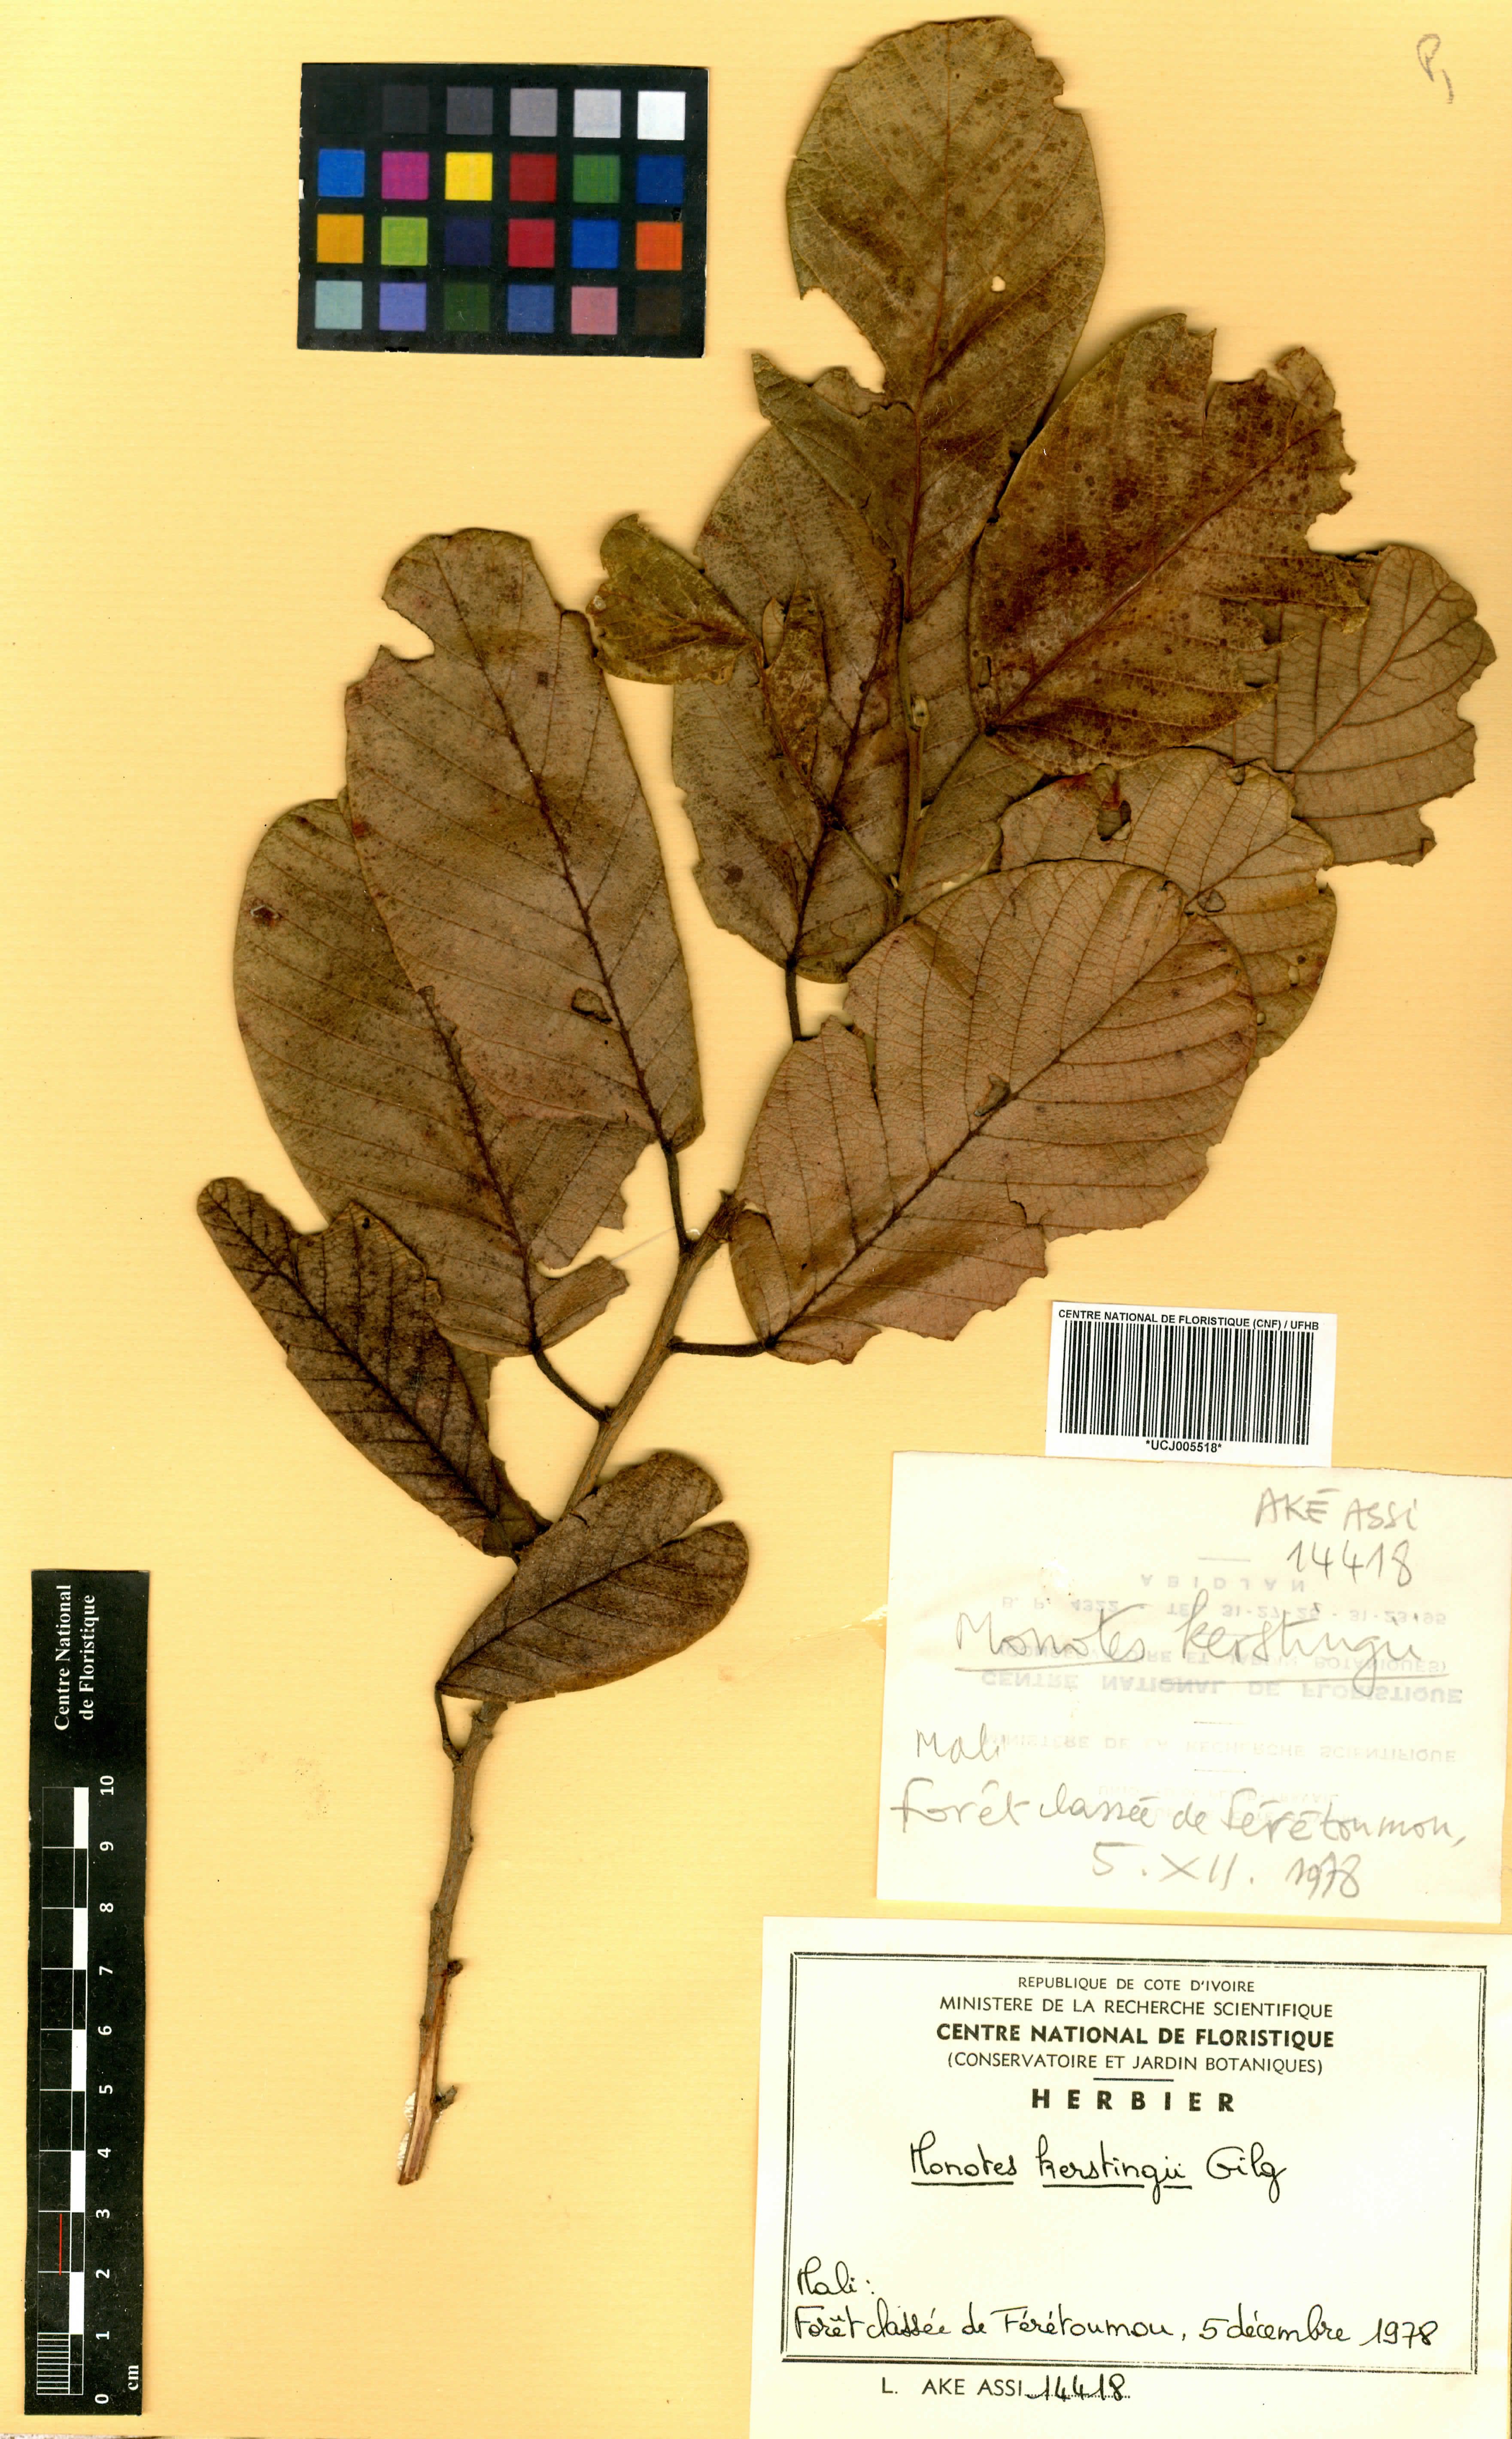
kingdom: Plantae
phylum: Tracheophyta
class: Magnoliopsida
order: Malvales
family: Dipterocarpaceae
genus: Monotes
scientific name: Monotes kerstingii
